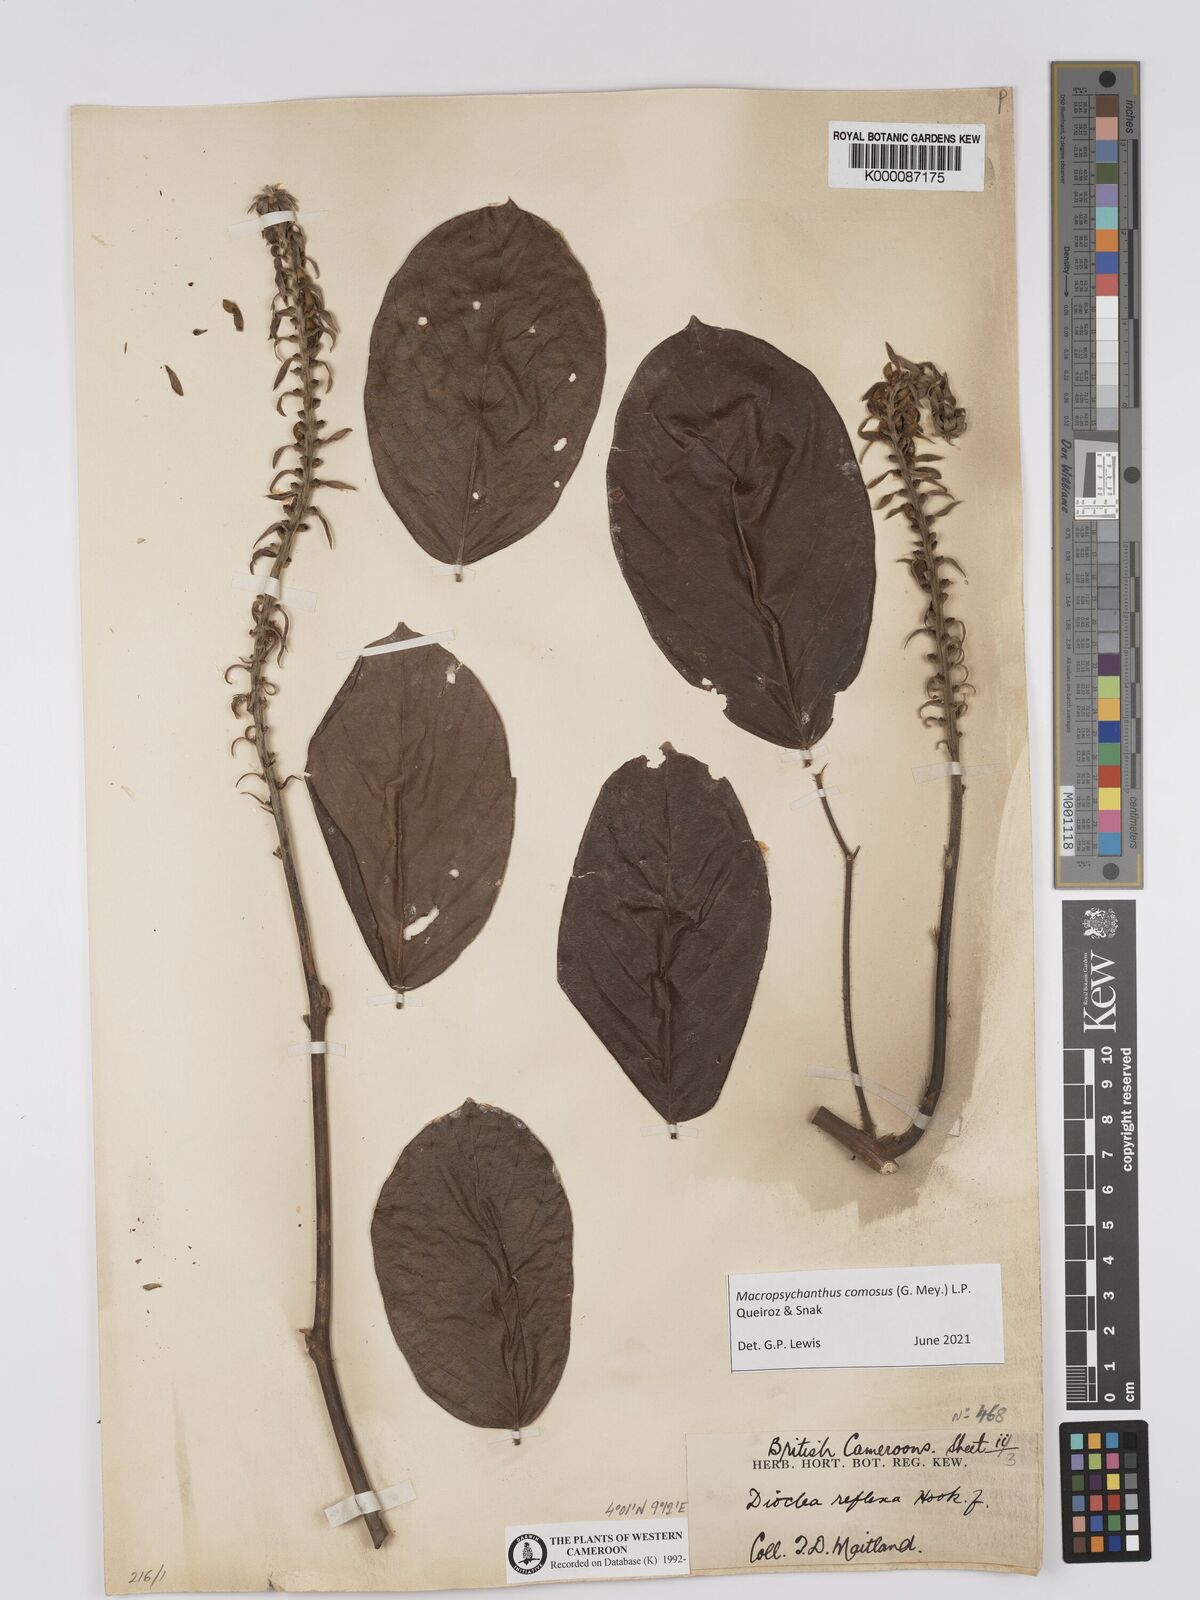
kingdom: Plantae
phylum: Tracheophyta
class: Magnoliopsida
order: Fabales
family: Fabaceae
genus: Macropsychanthus
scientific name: Macropsychanthus comosus
